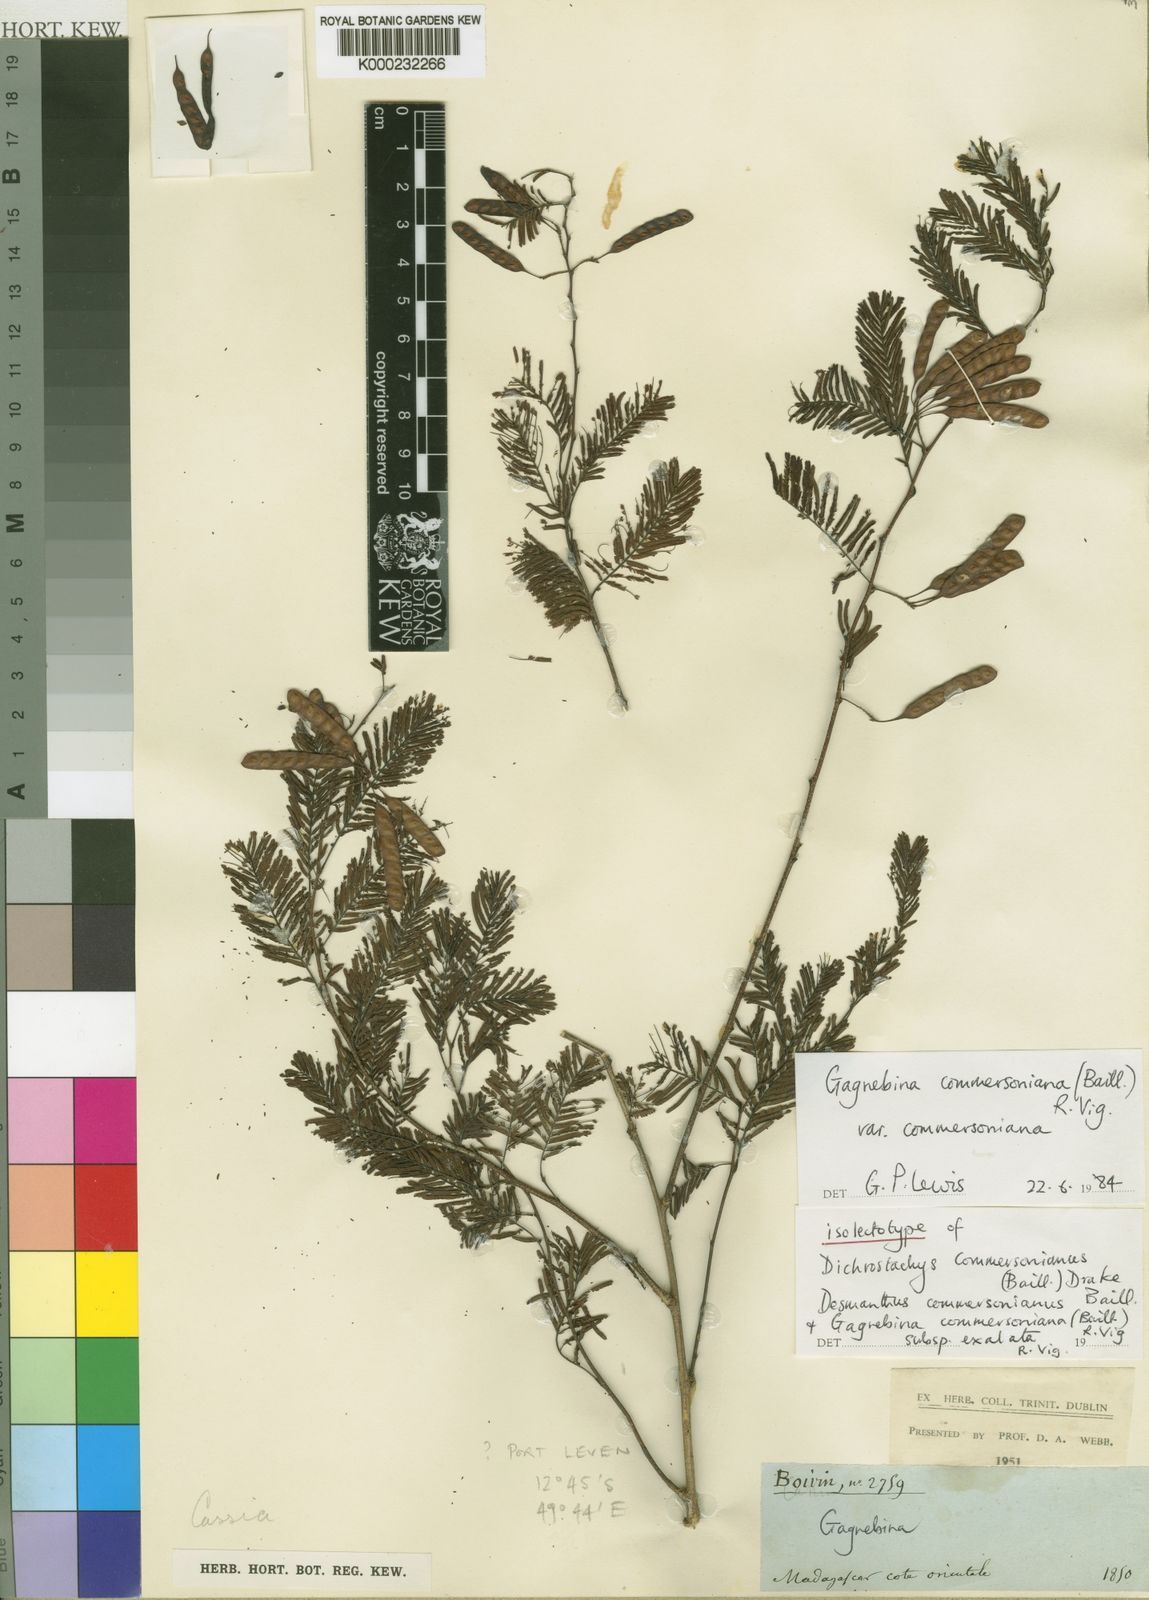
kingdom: Plantae
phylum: Tracheophyta
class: Magnoliopsida
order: Fabales
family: Fabaceae
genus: Gagnebina
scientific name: Gagnebina commersoniana
